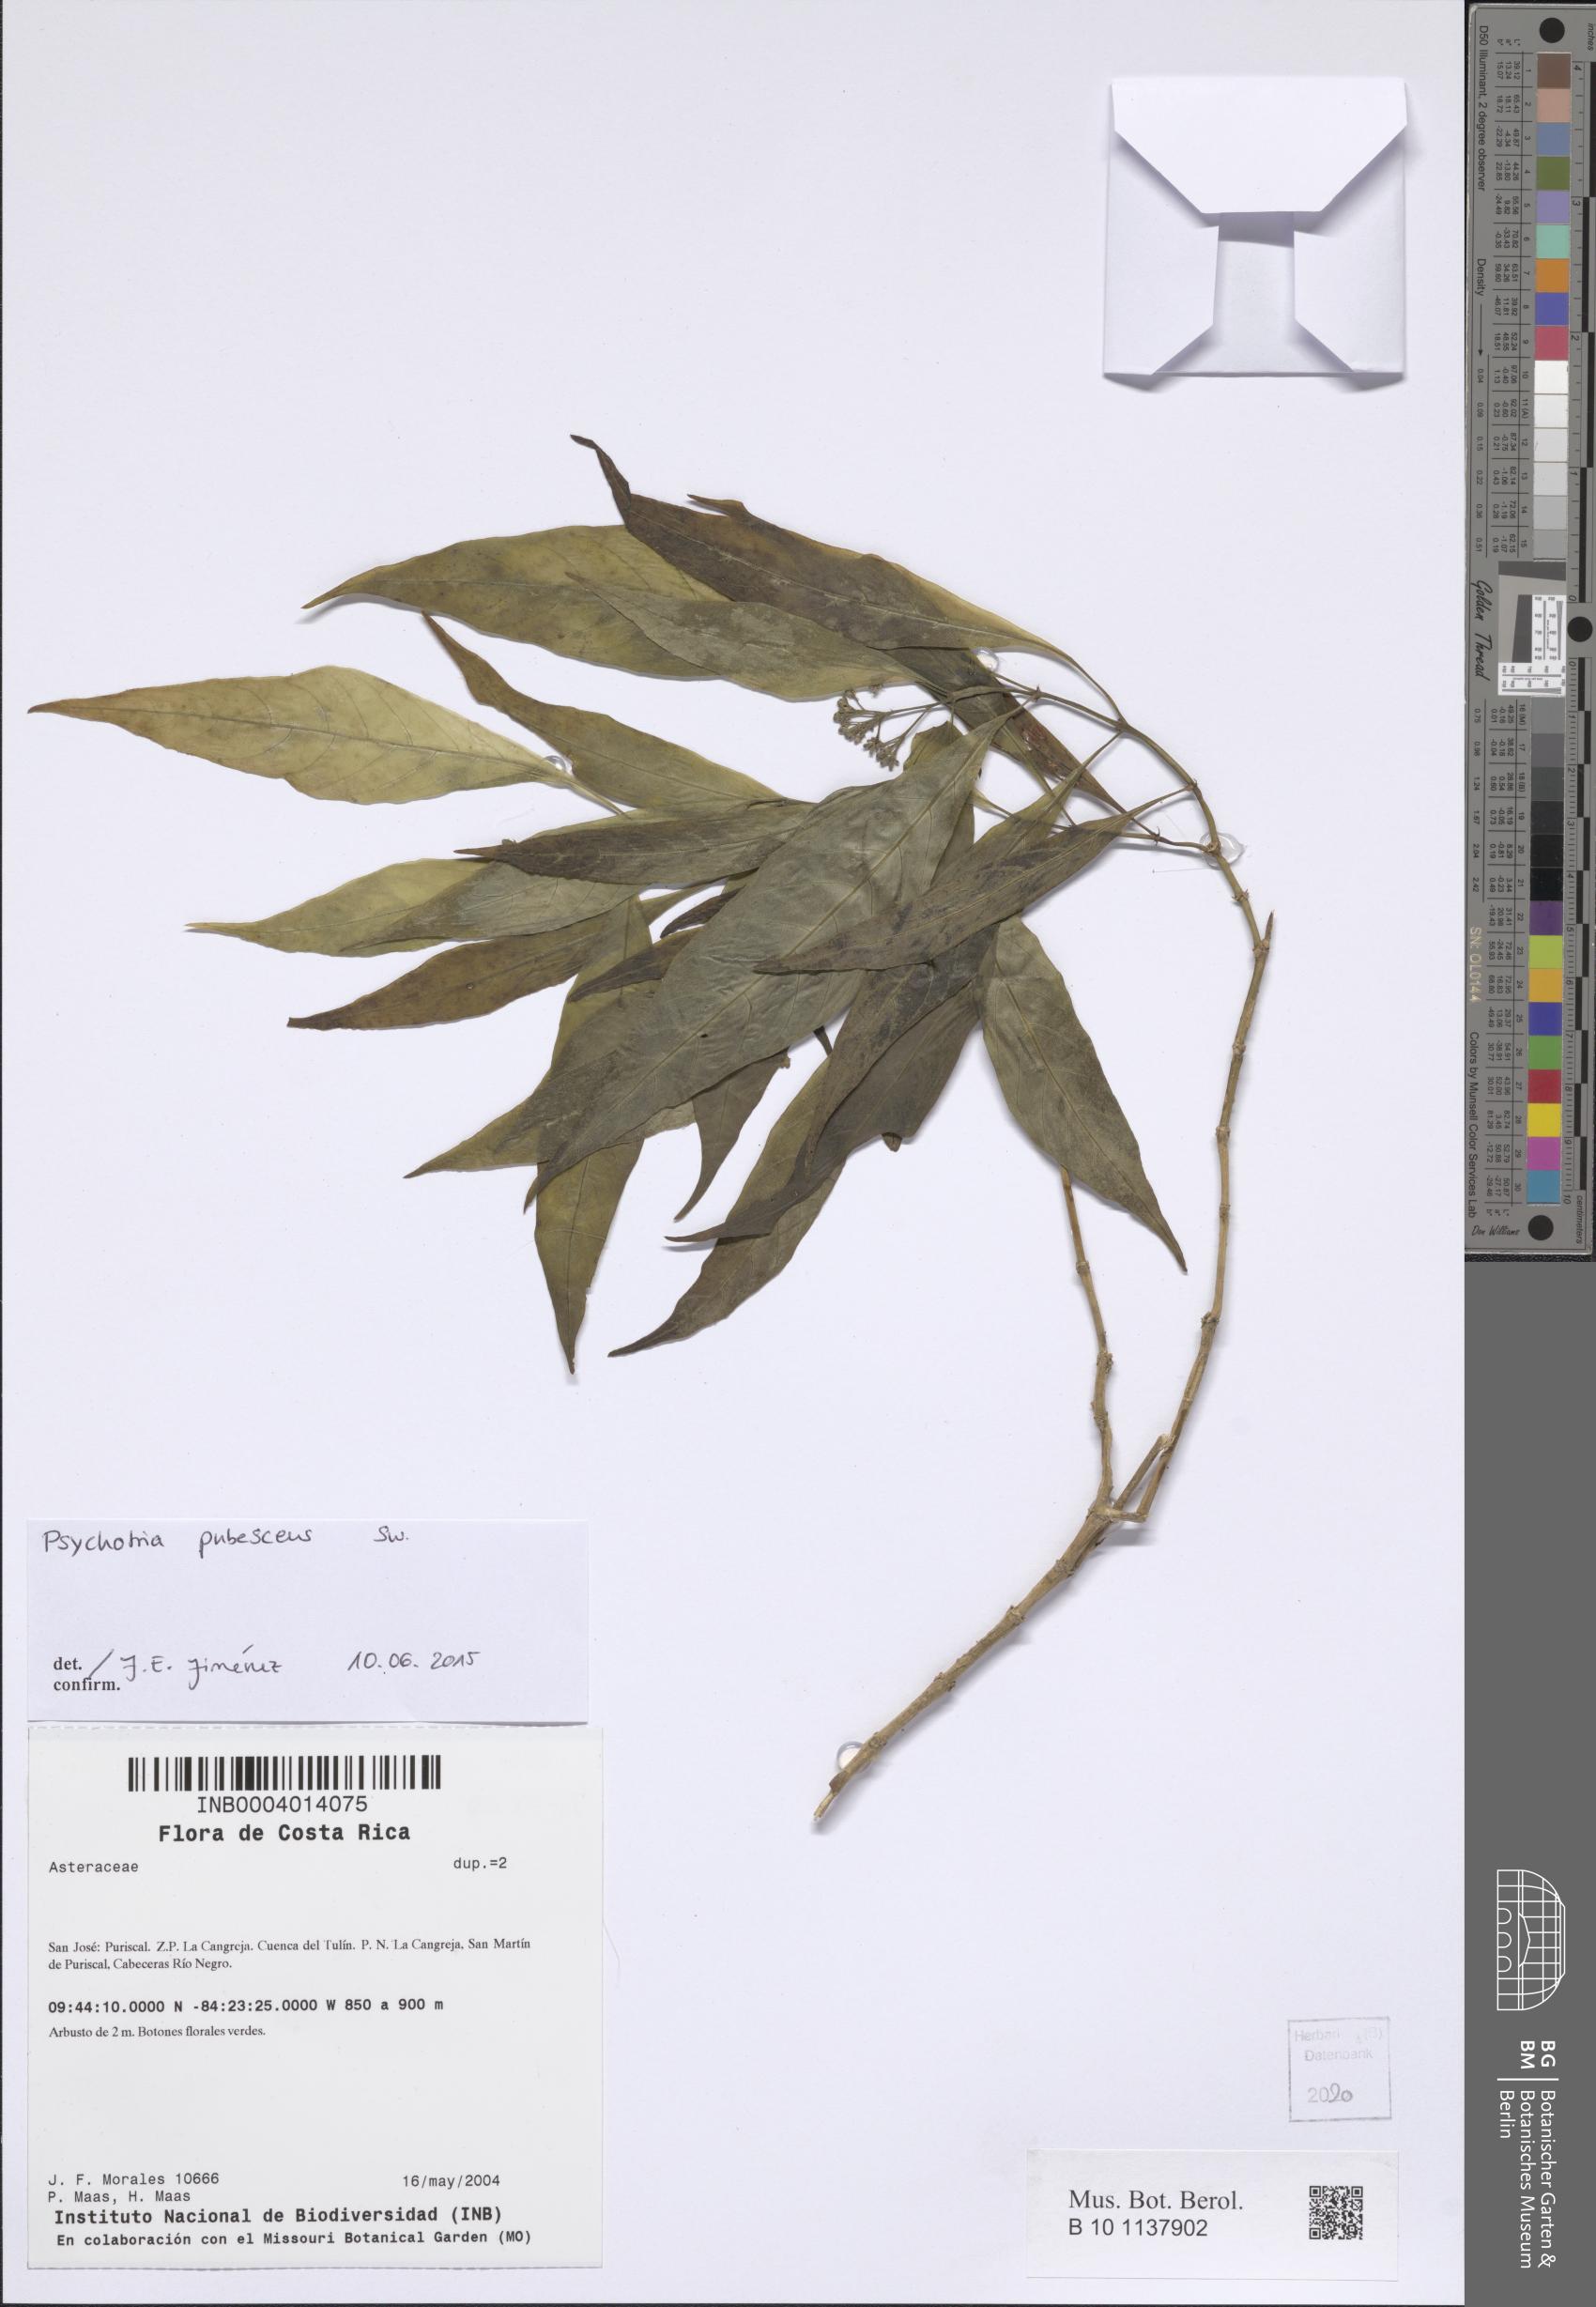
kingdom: Plantae
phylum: Tracheophyta
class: Magnoliopsida
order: Gentianales
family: Rubiaceae
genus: Palicourea
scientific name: Palicourea pubescens
